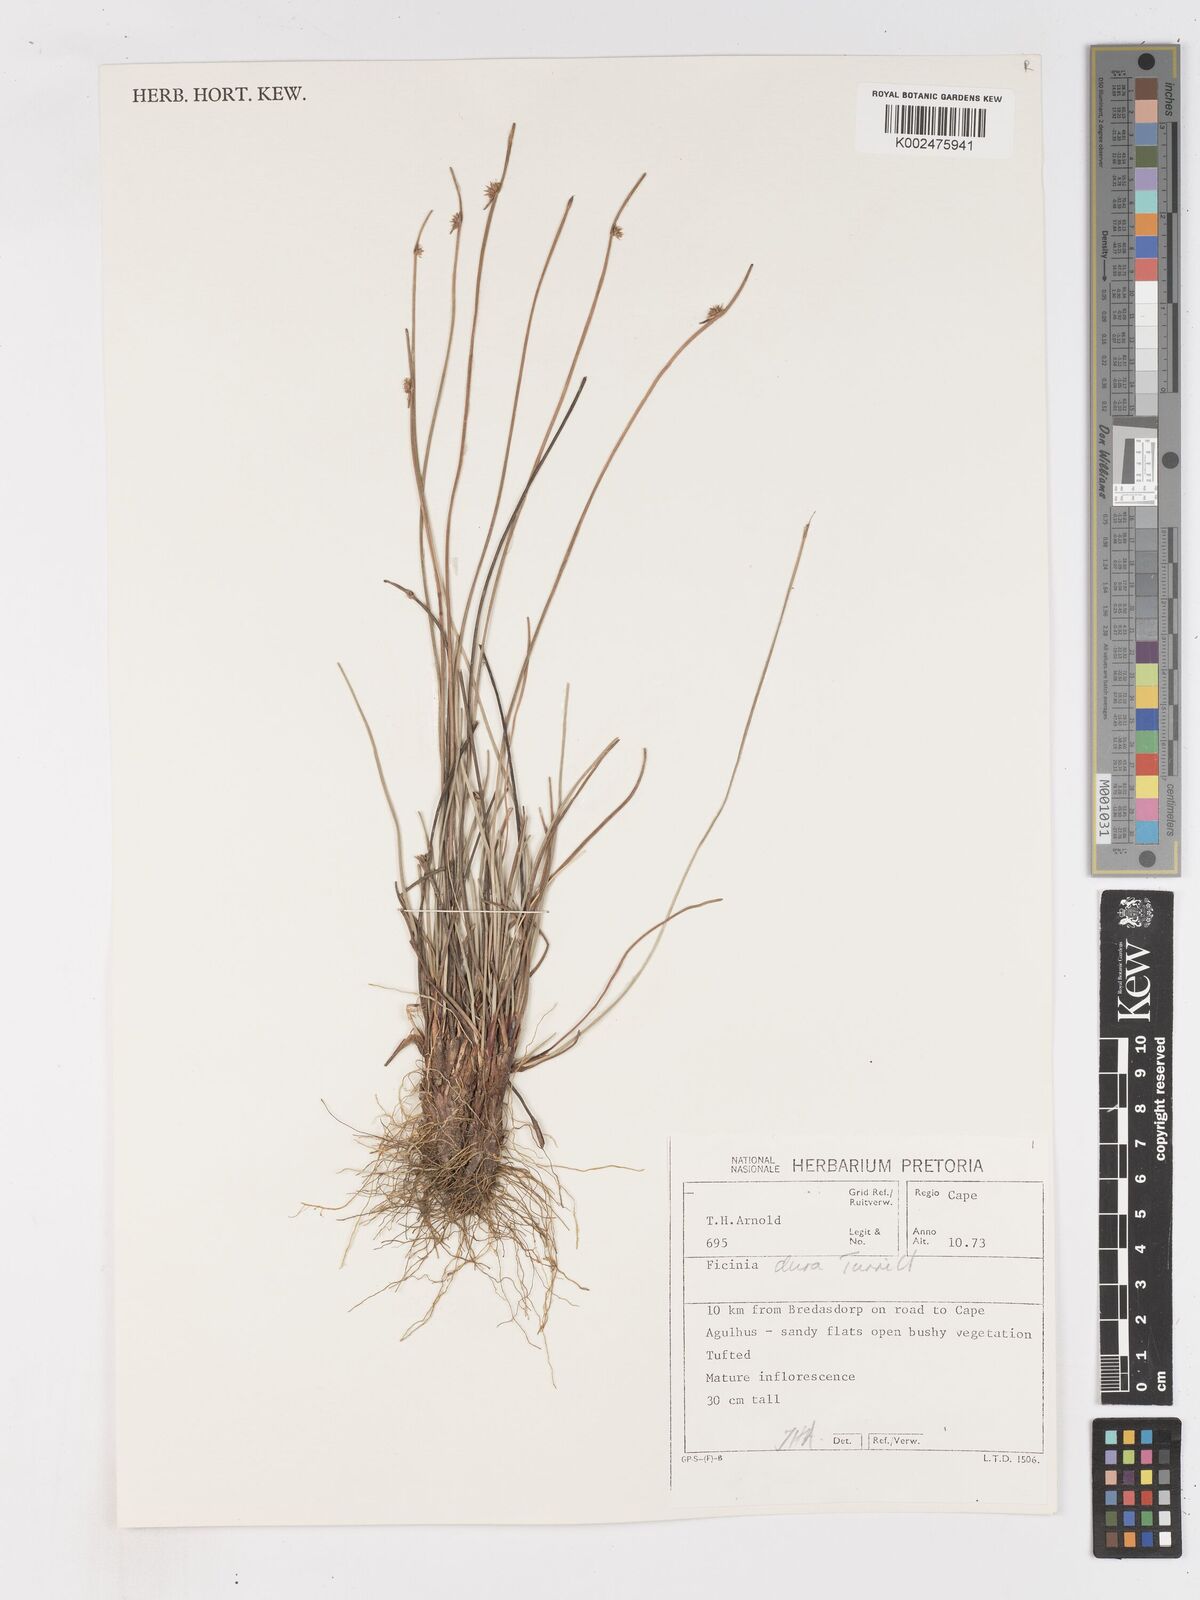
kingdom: Plantae
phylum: Tracheophyta
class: Liliopsida
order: Poales
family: Cyperaceae
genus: Ficinia
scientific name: Ficinia dura
